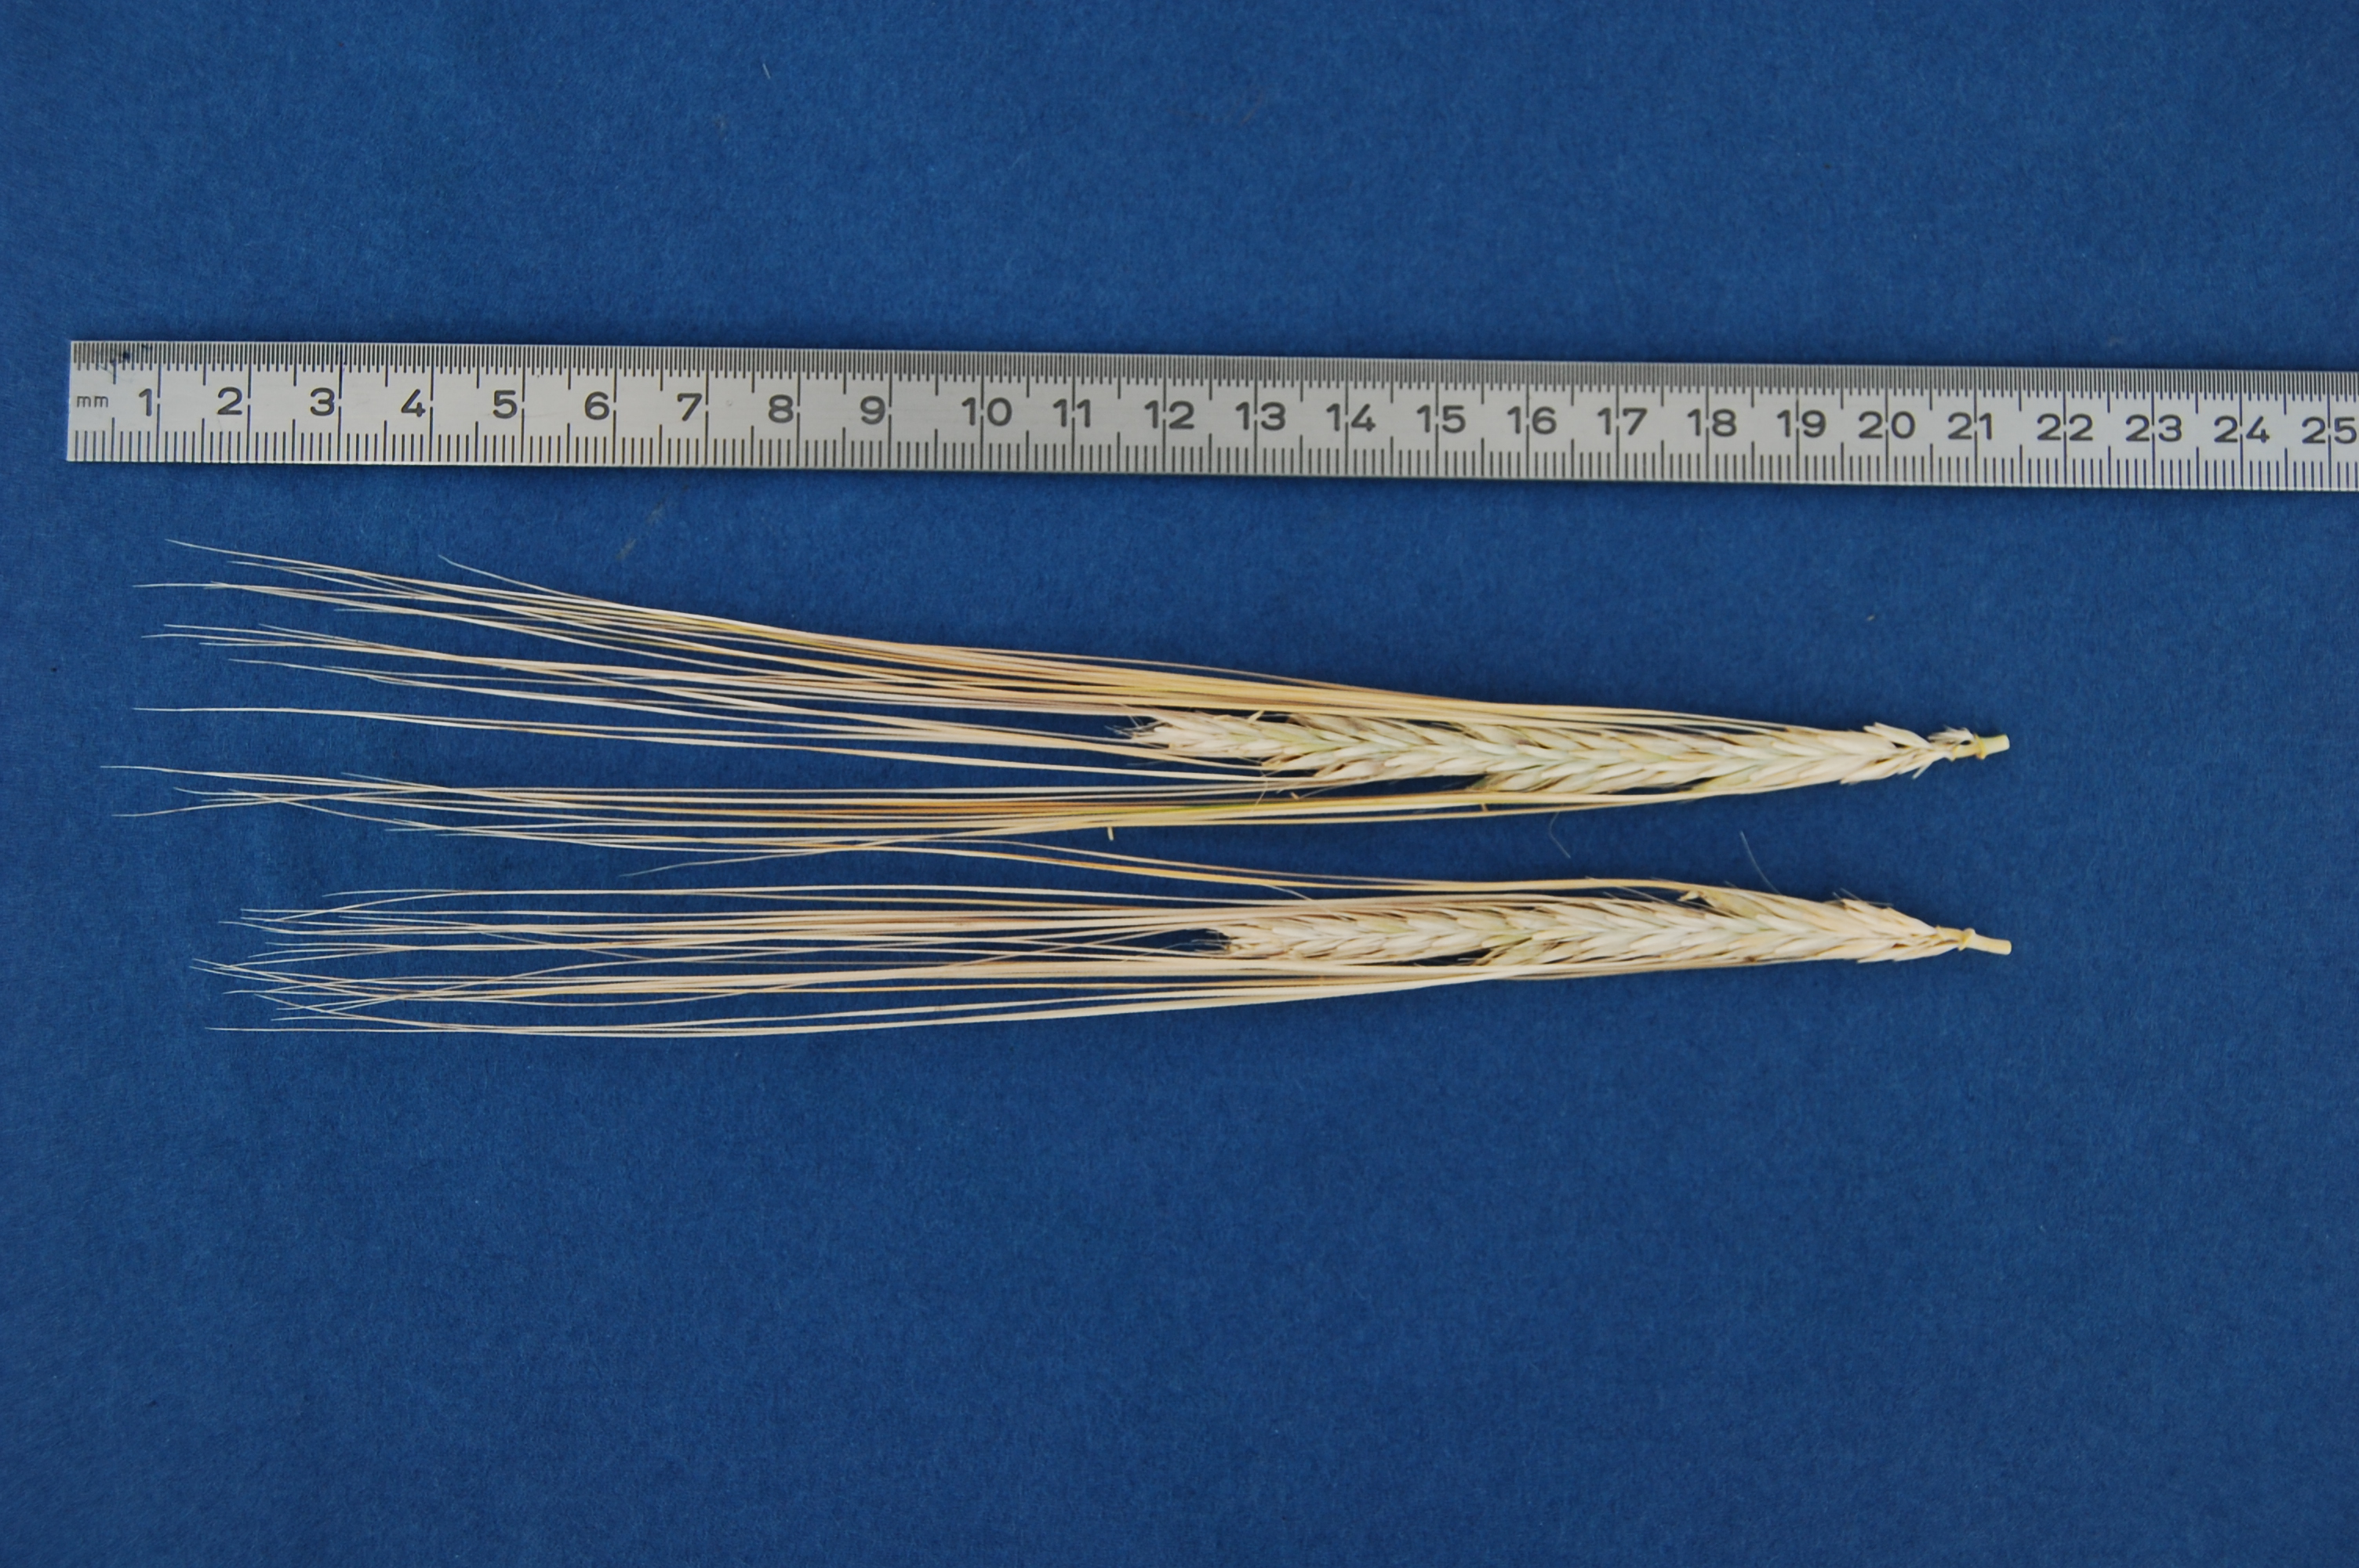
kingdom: Plantae
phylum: Tracheophyta
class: Liliopsida
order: Poales
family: Poaceae
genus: Hordeum
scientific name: Hordeum vulgare
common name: Common barley
